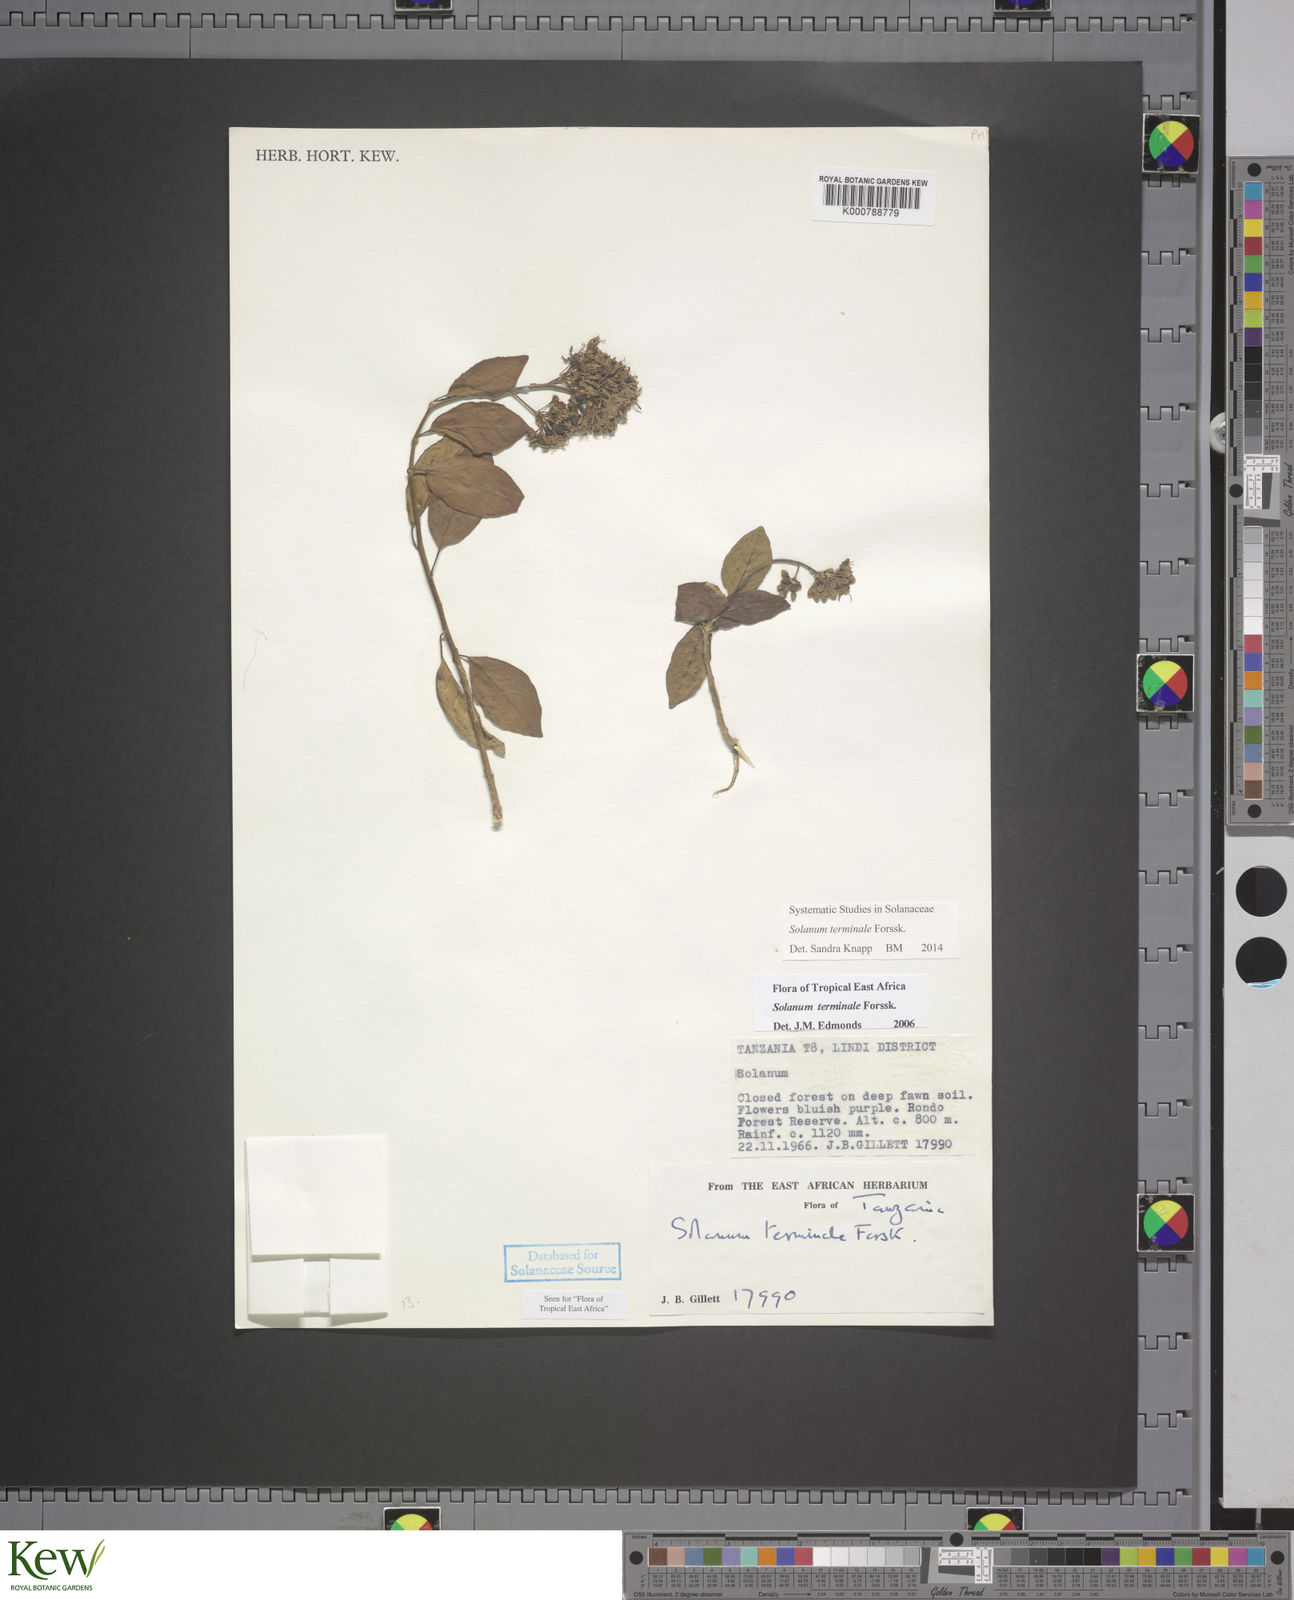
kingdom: Plantae
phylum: Tracheophyta
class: Magnoliopsida
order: Solanales
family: Solanaceae
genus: Solanum
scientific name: Solanum terminale
